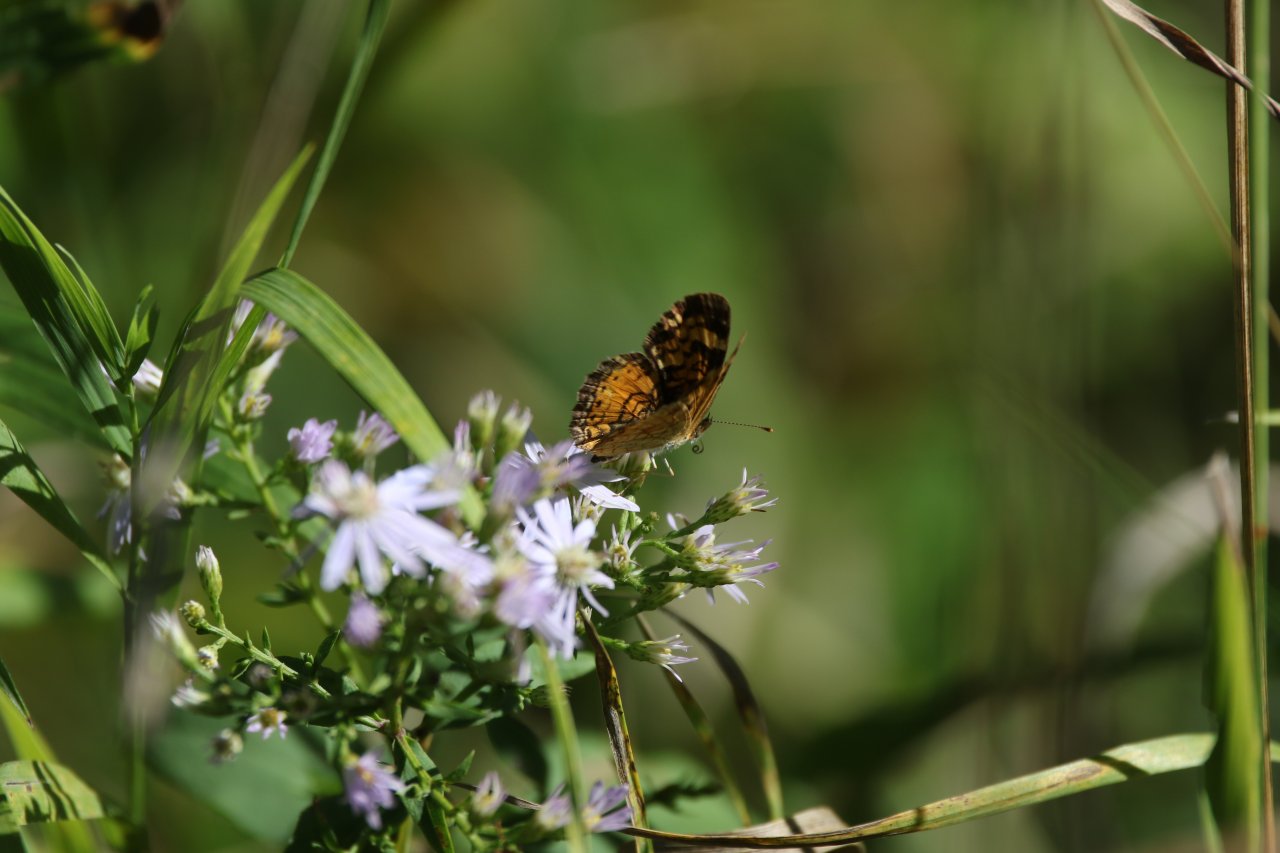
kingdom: Animalia
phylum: Arthropoda
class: Insecta
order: Lepidoptera
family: Nymphalidae
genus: Phyciodes
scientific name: Phyciodes tharos
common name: Northern Crescent
